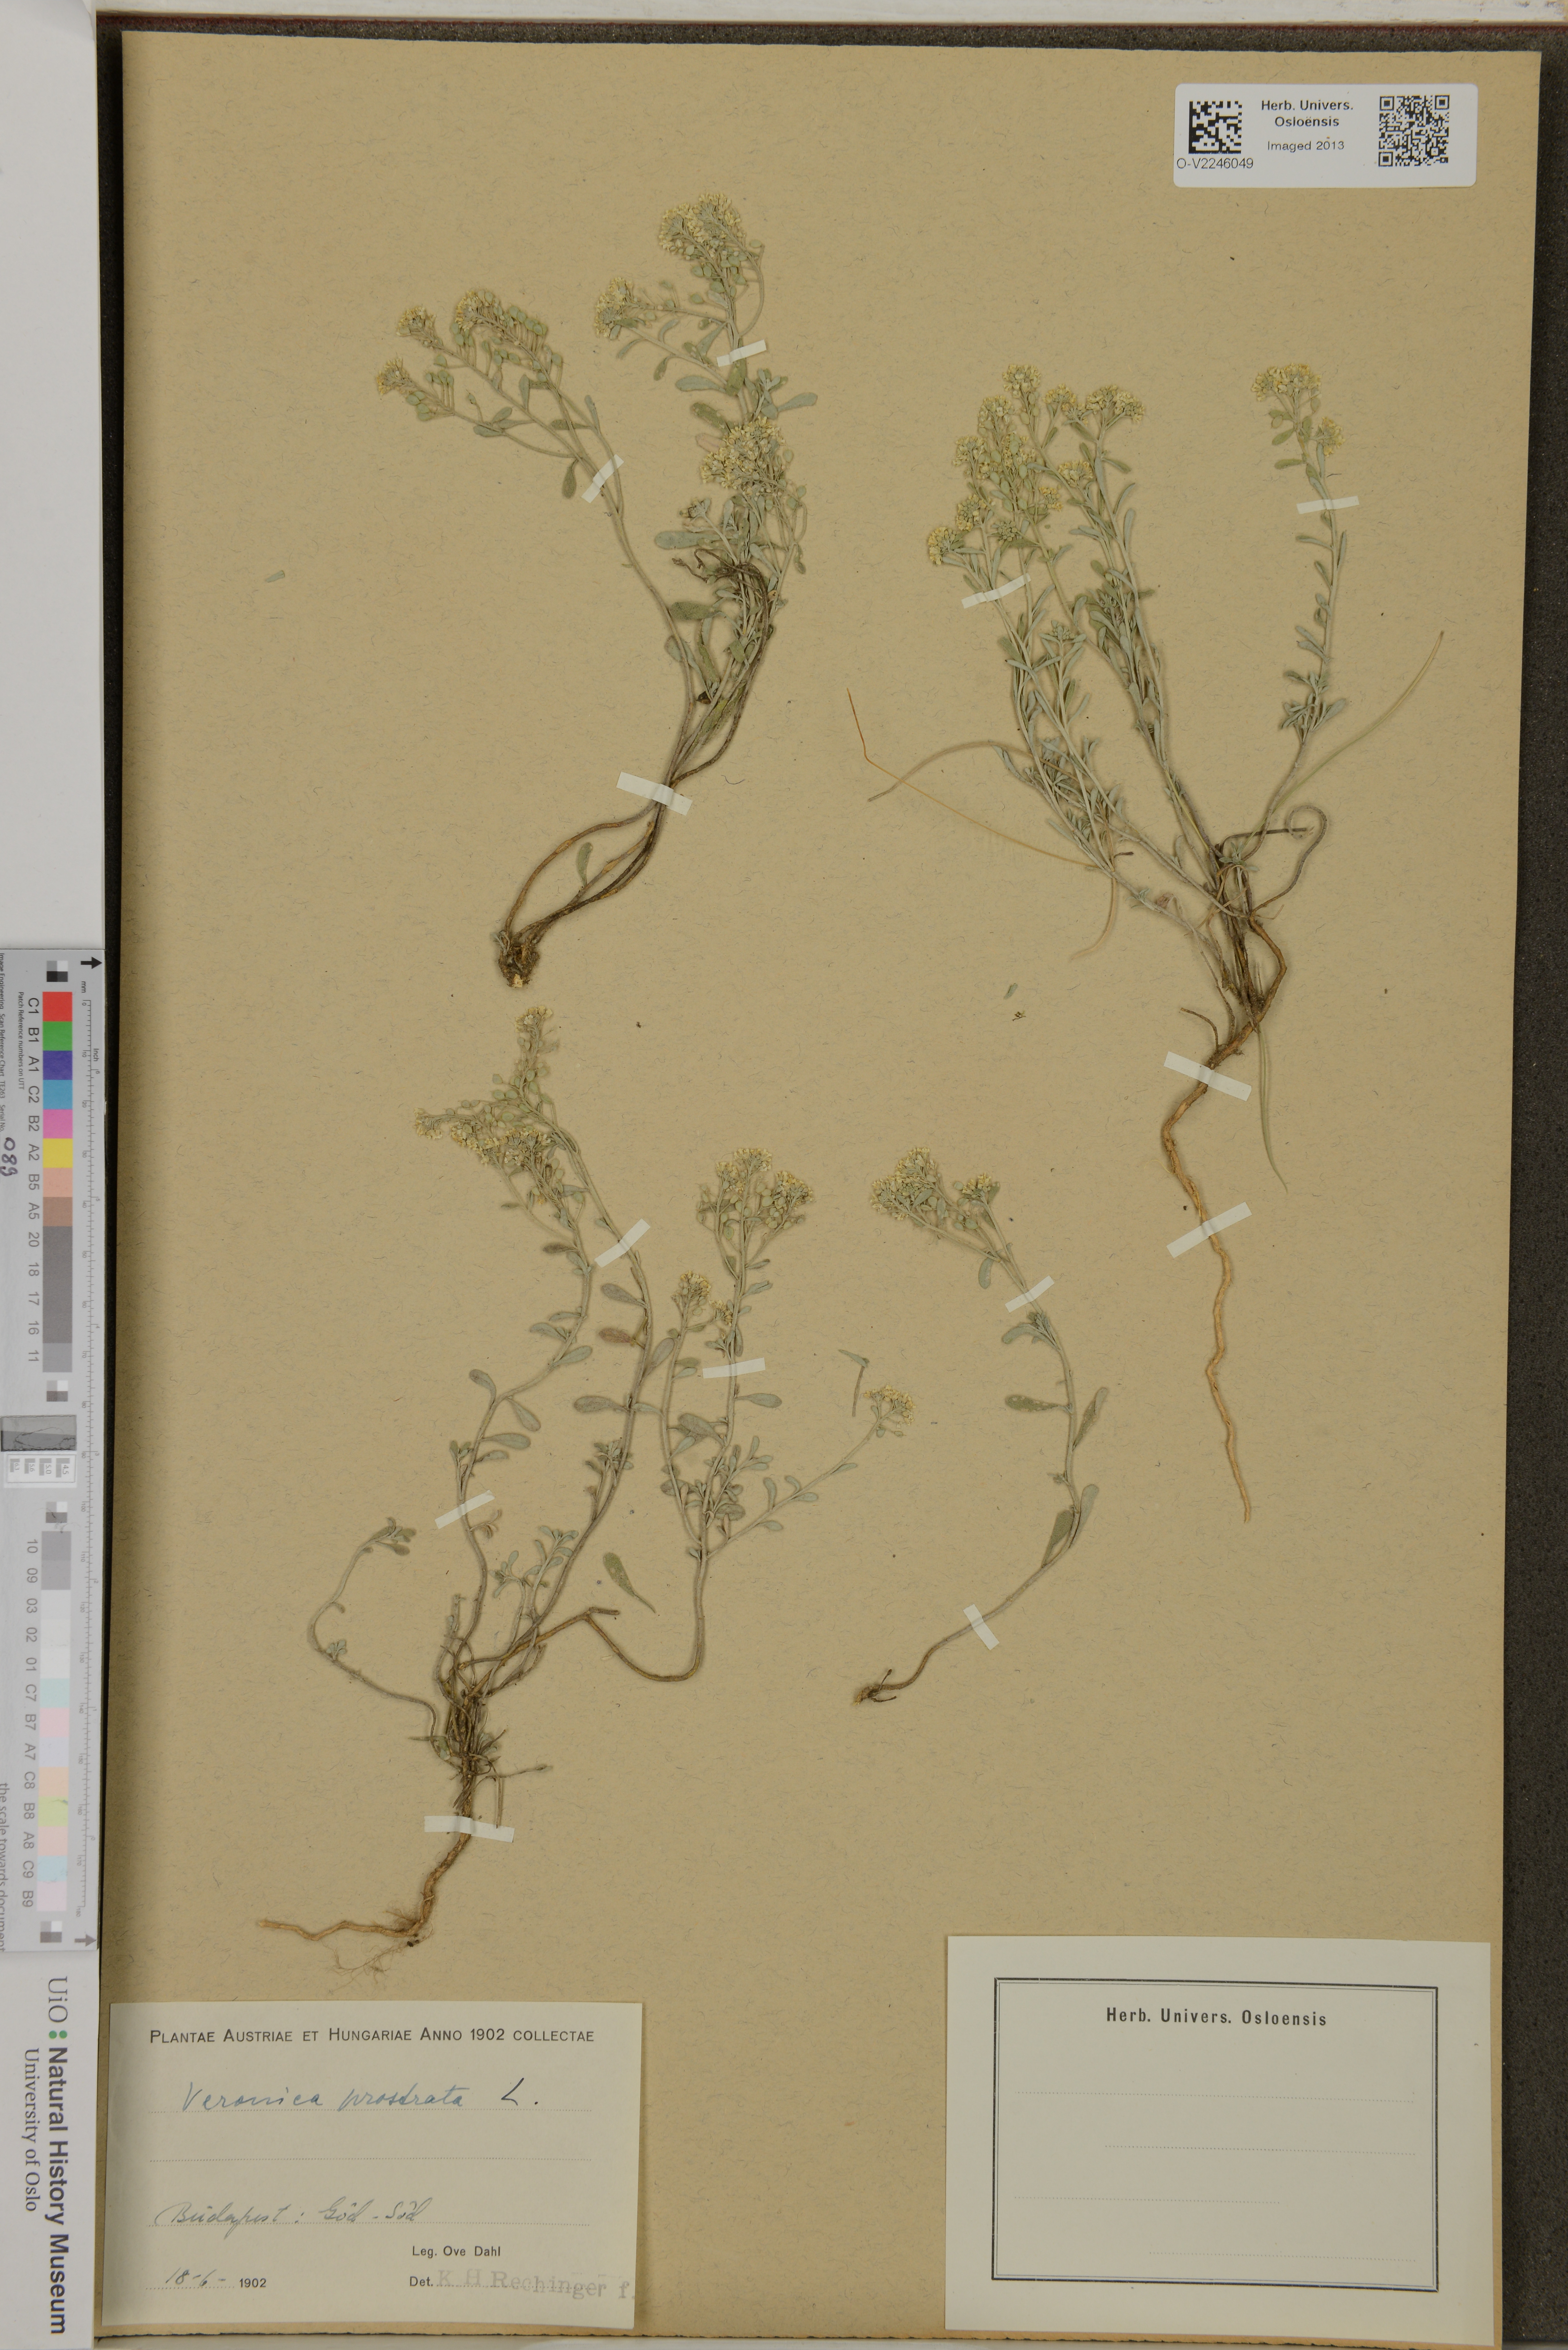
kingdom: Plantae
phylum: Tracheophyta
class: Magnoliopsida
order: Lamiales
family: Plantaginaceae
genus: Veronica
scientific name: Veronica prostrata
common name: Prostrate speedwell
